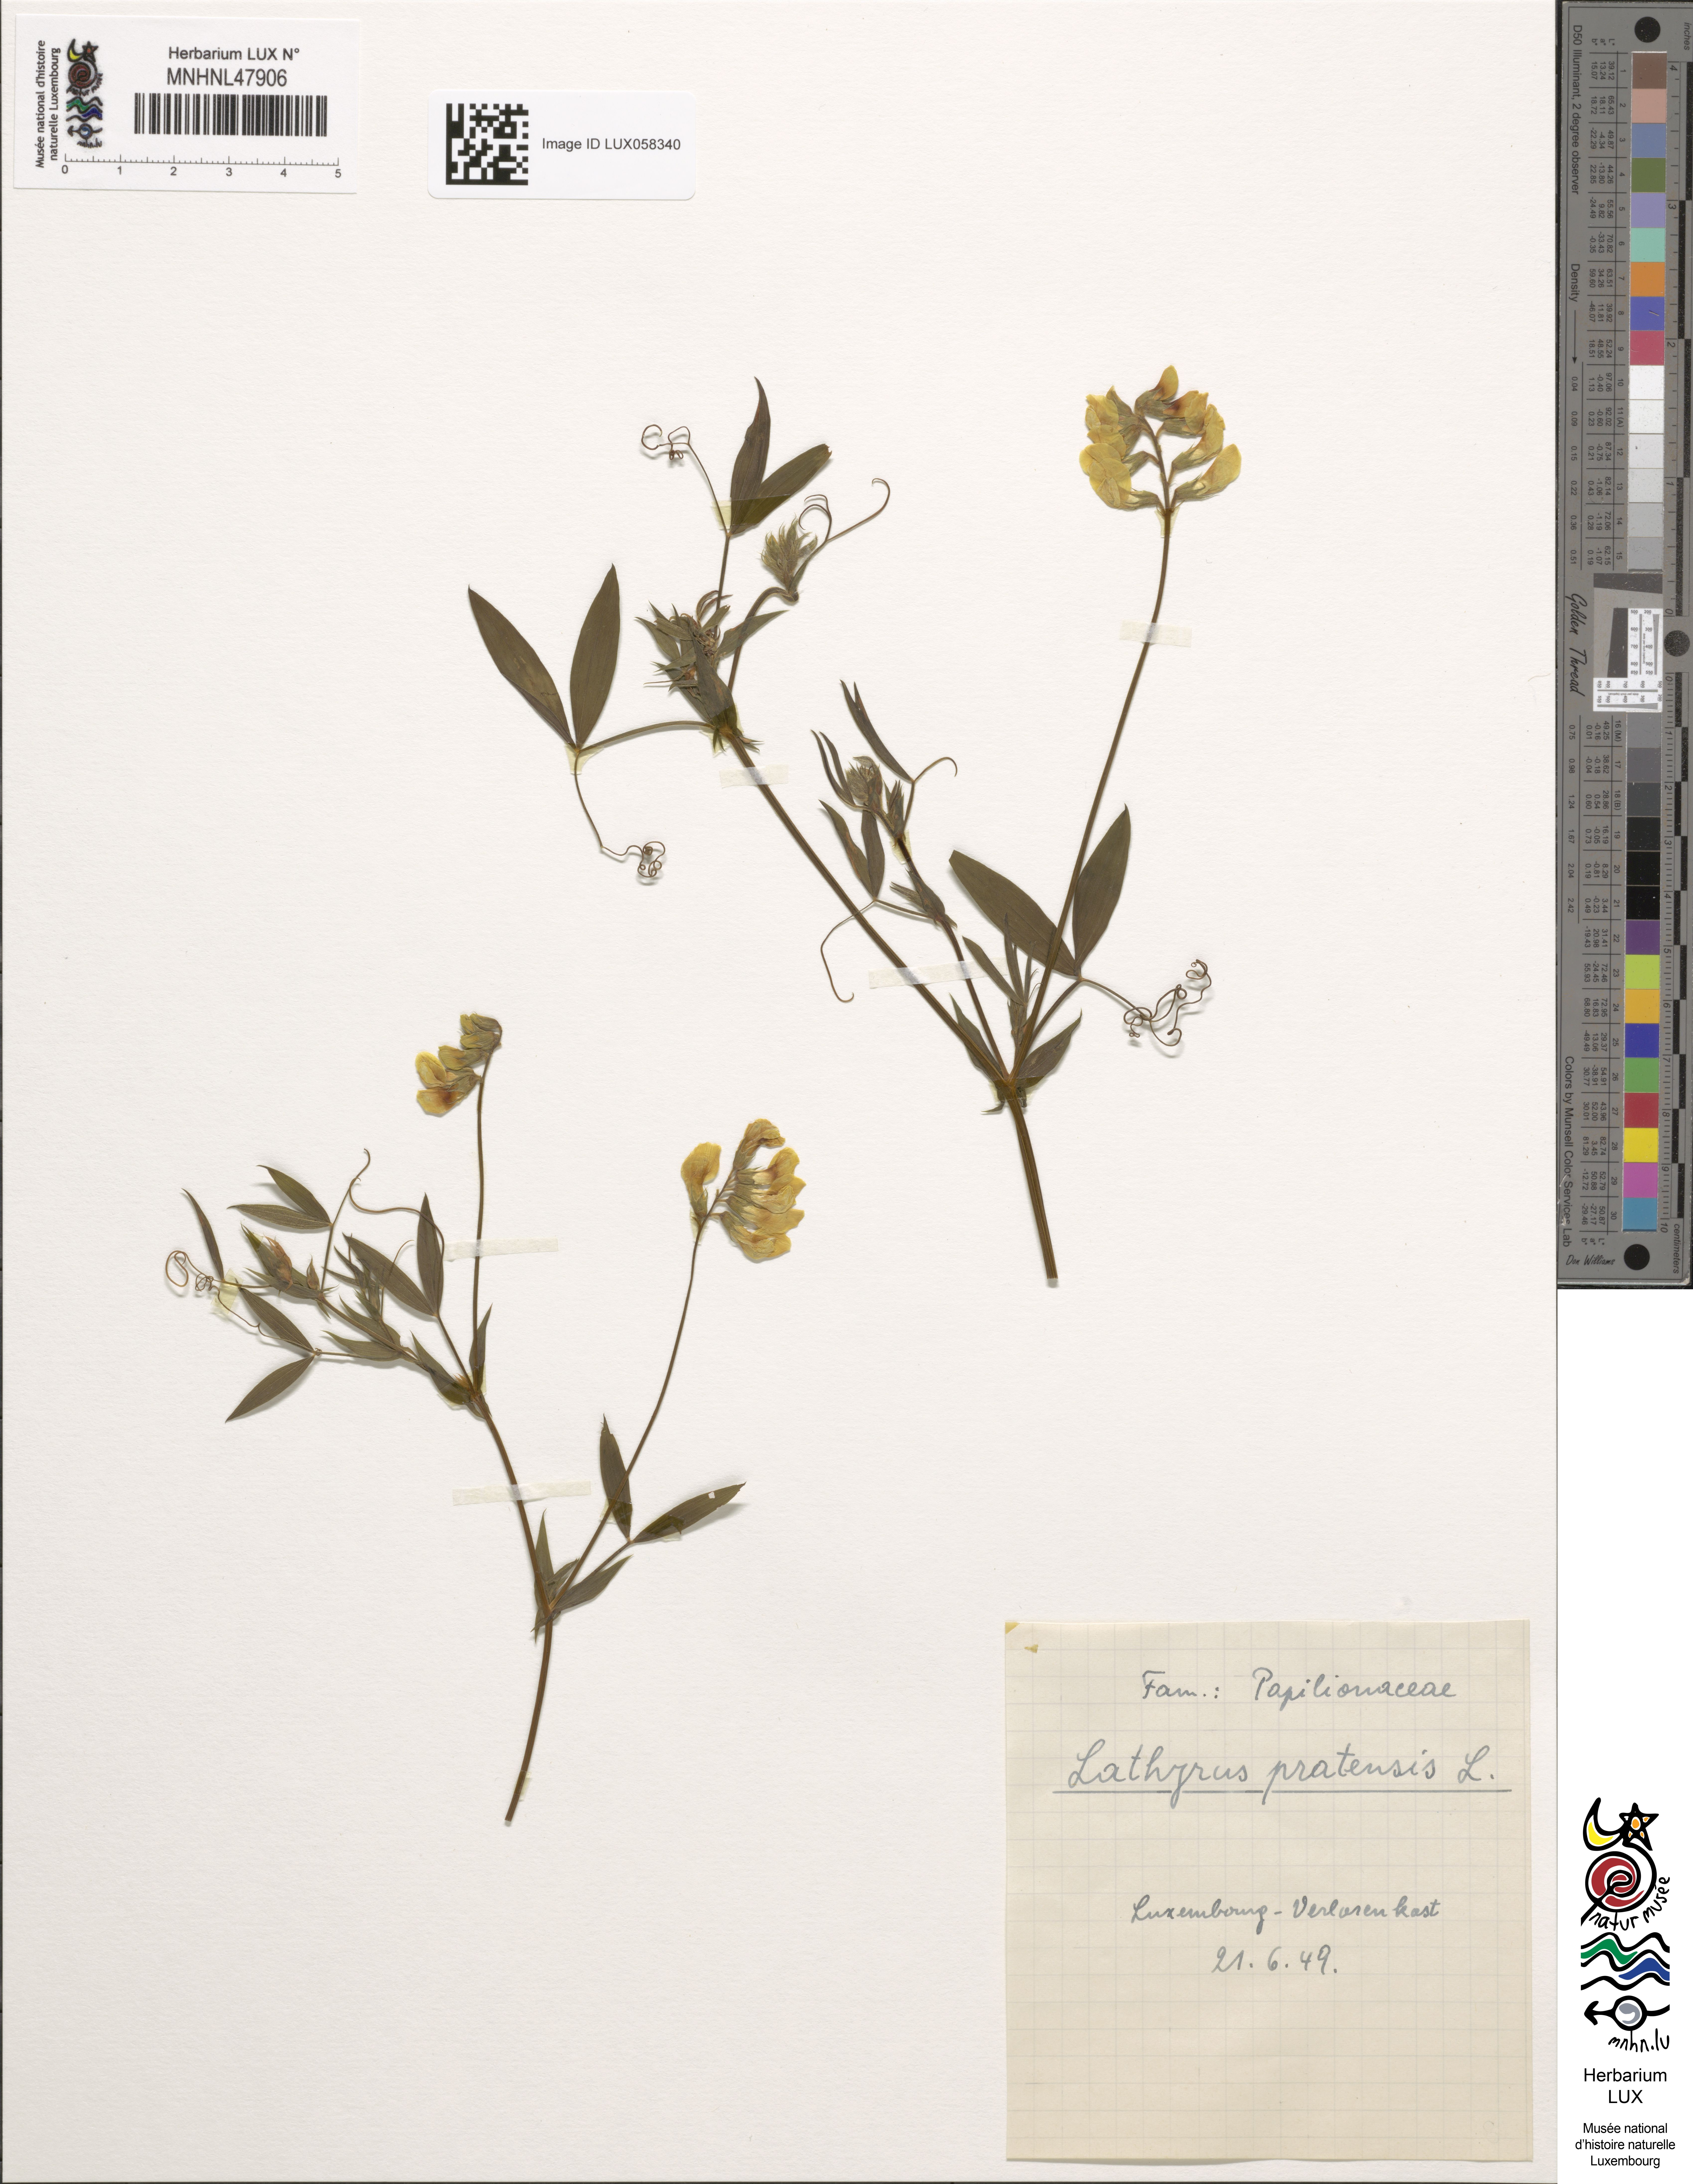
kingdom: Plantae
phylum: Tracheophyta
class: Magnoliopsida
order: Fabales
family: Fabaceae
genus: Lathyrus
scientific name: Lathyrus pratensis
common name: Meadow vetchling
